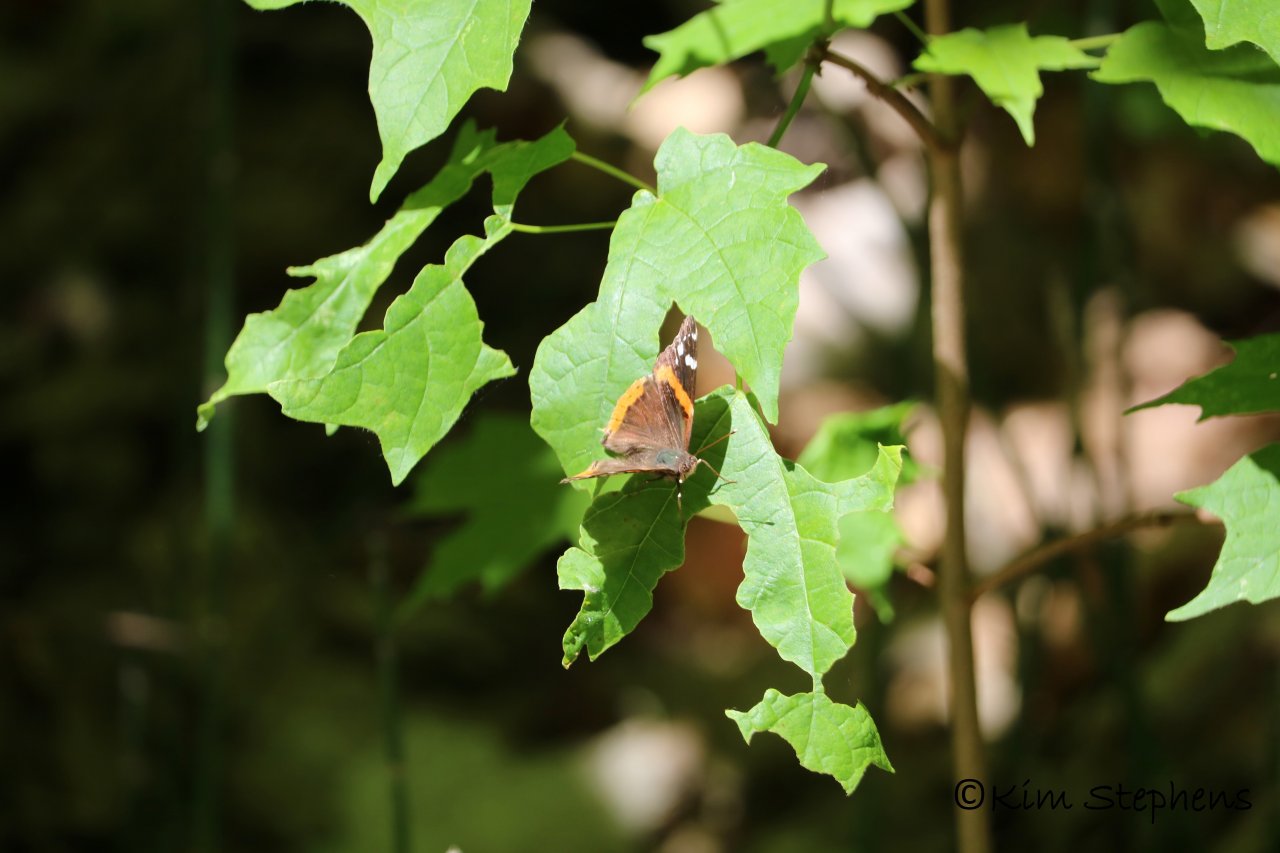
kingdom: Animalia
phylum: Arthropoda
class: Insecta
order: Lepidoptera
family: Nymphalidae
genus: Vanessa
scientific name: Vanessa atalanta
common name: Red Admiral
